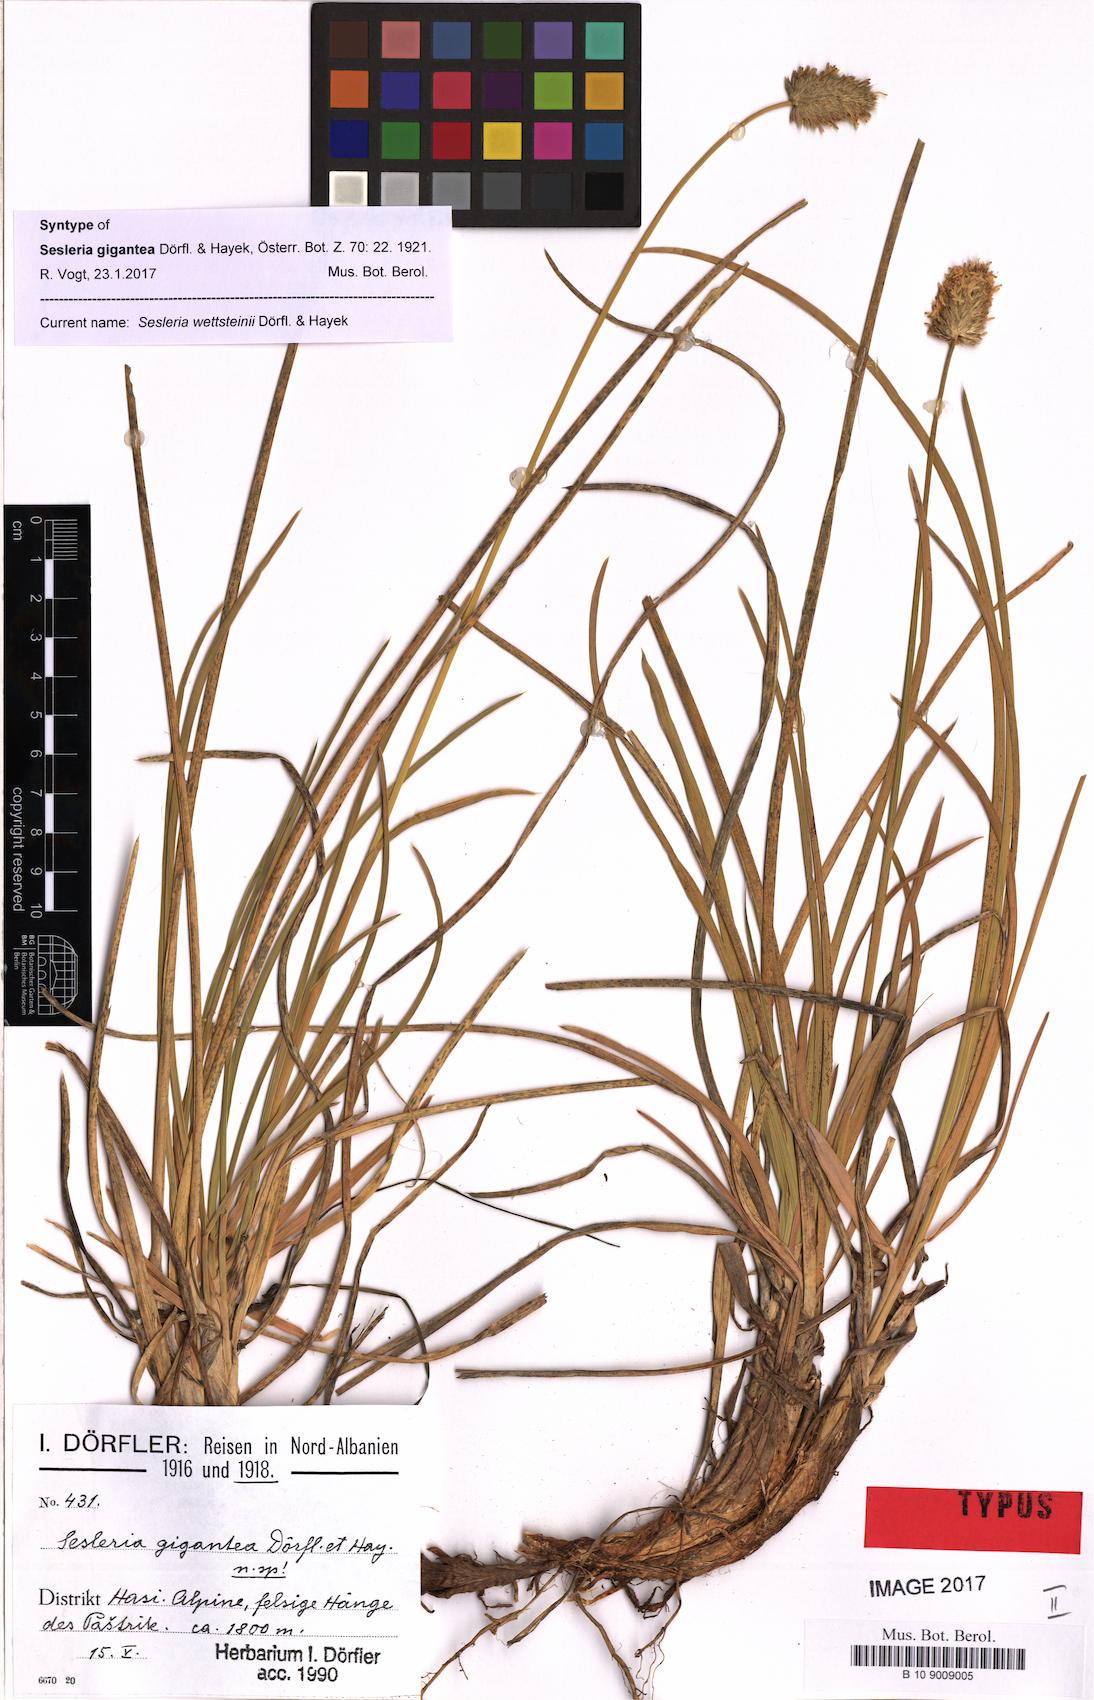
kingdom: Plantae
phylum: Tracheophyta
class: Liliopsida
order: Poales
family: Poaceae
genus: Sesleria
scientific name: Sesleria wettsteinii
